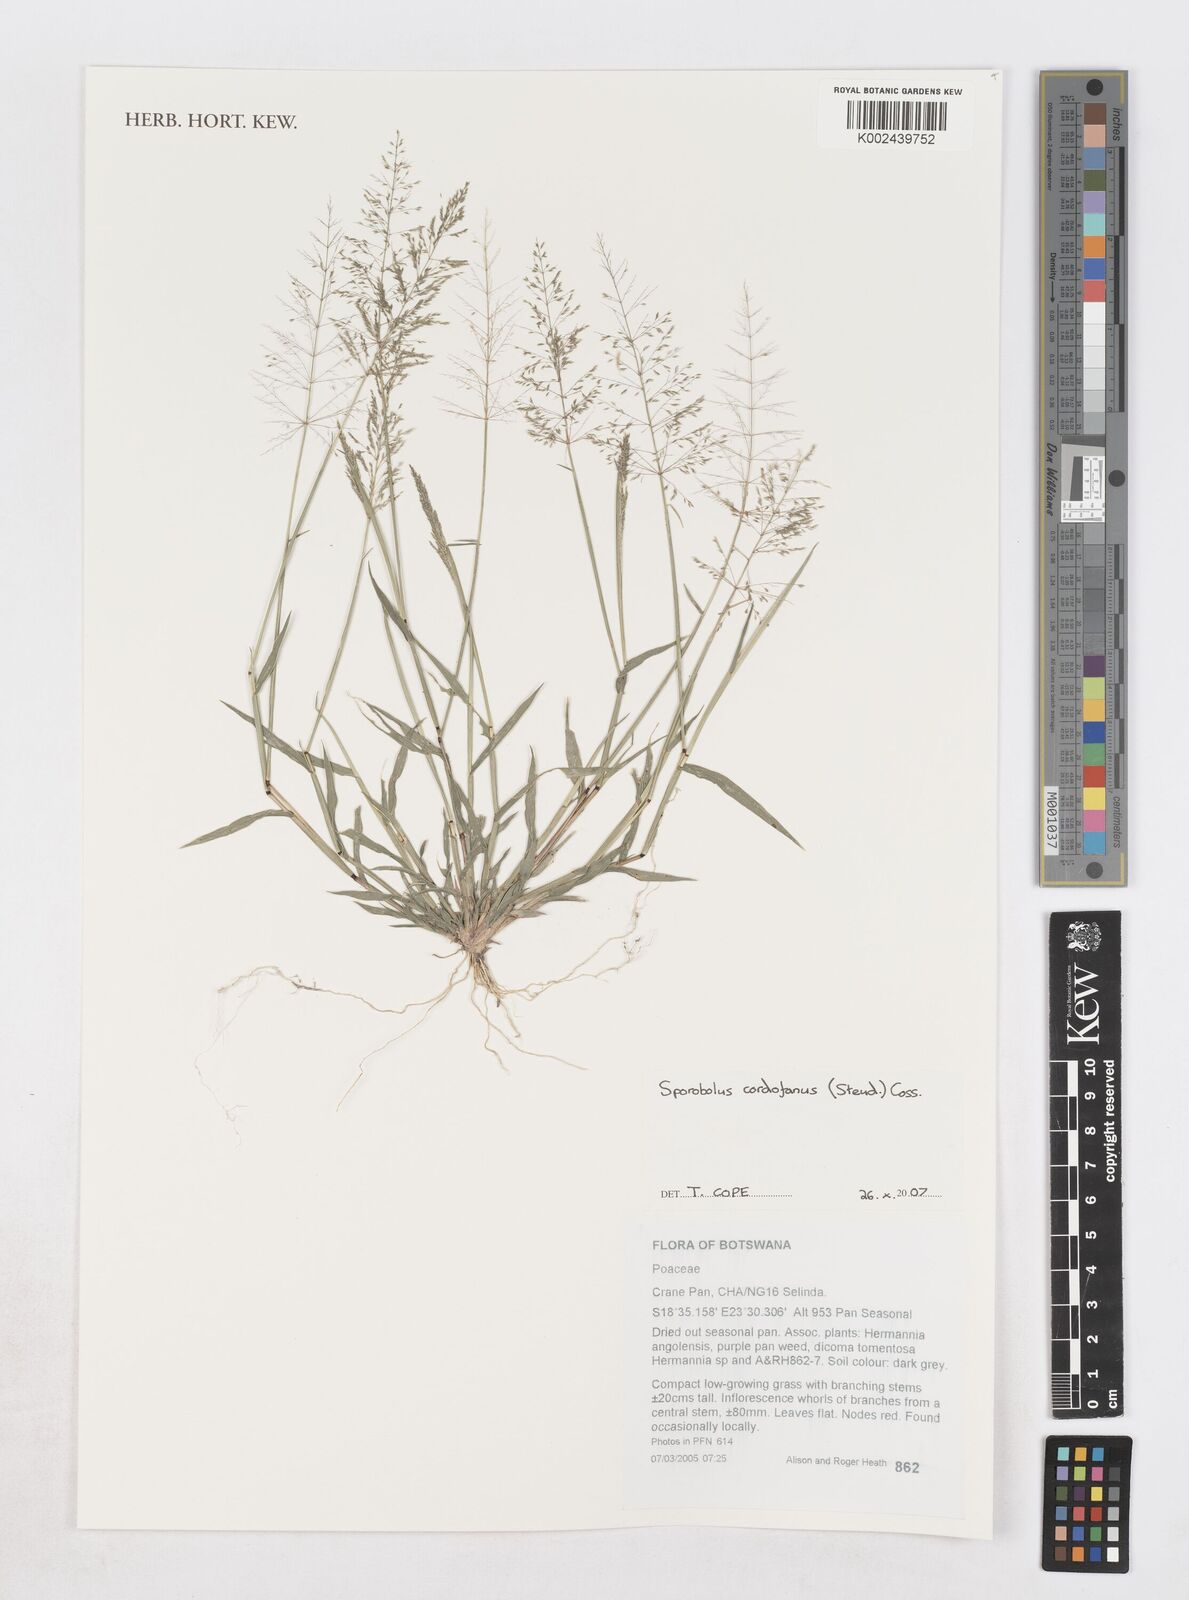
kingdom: Plantae
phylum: Tracheophyta
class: Liliopsida
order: Poales
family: Poaceae
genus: Sporobolus
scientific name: Sporobolus cordofanus
